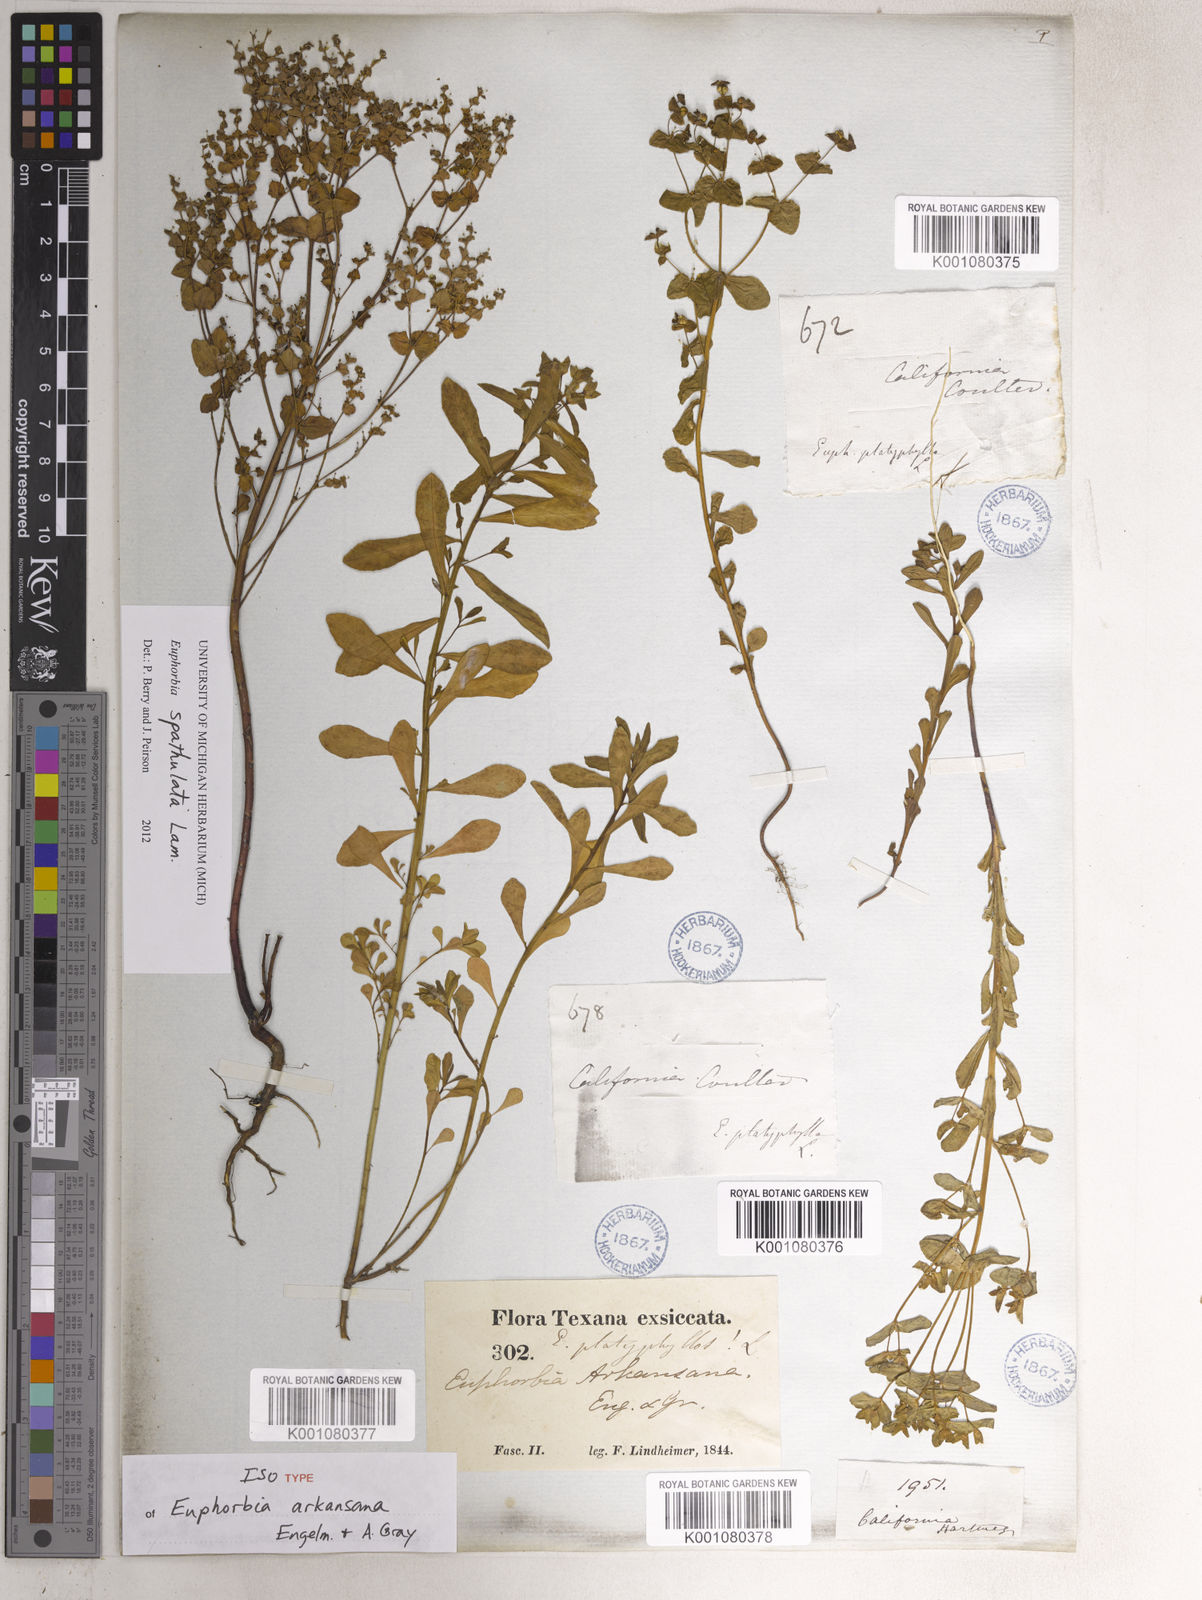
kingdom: Plantae
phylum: Tracheophyta
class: Magnoliopsida
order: Malpighiales
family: Euphorbiaceae
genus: Euphorbia
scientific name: Euphorbia spathulata
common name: Blunt spurge
